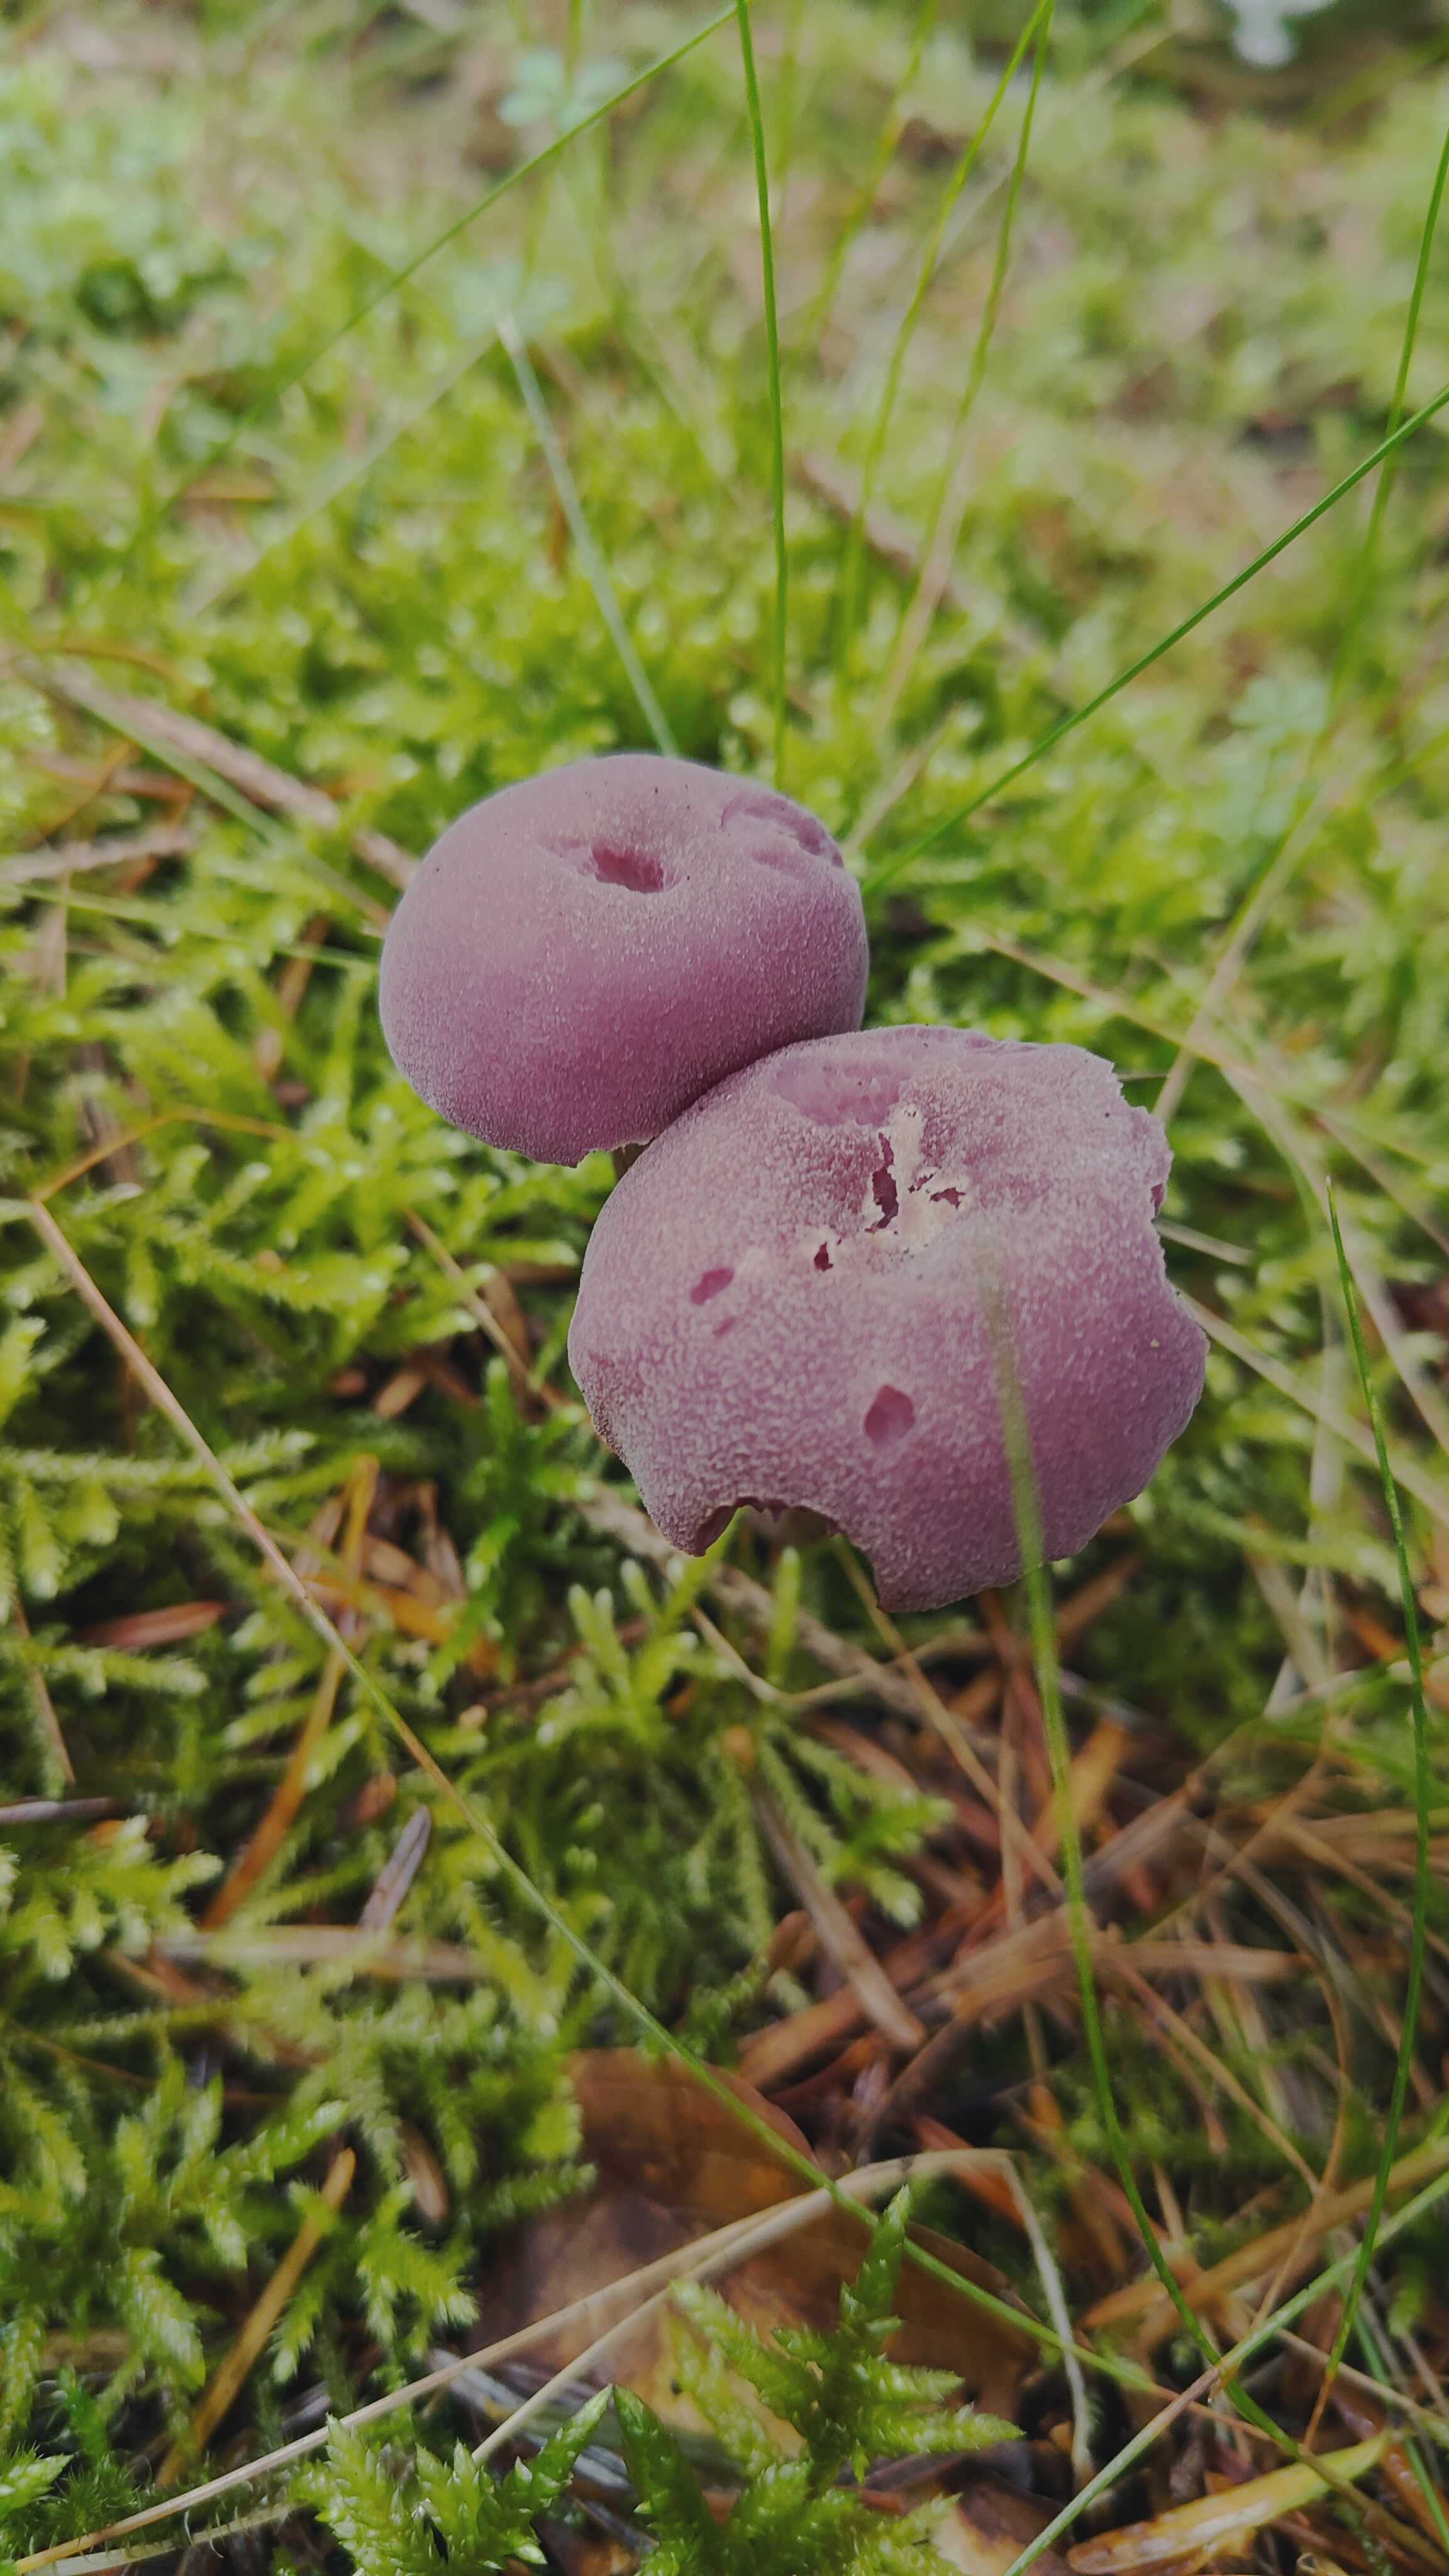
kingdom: Fungi
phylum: Basidiomycota
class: Agaricomycetes
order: Agaricales
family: Hydnangiaceae
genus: Laccaria
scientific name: Laccaria amethystina
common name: violet ametysthat
